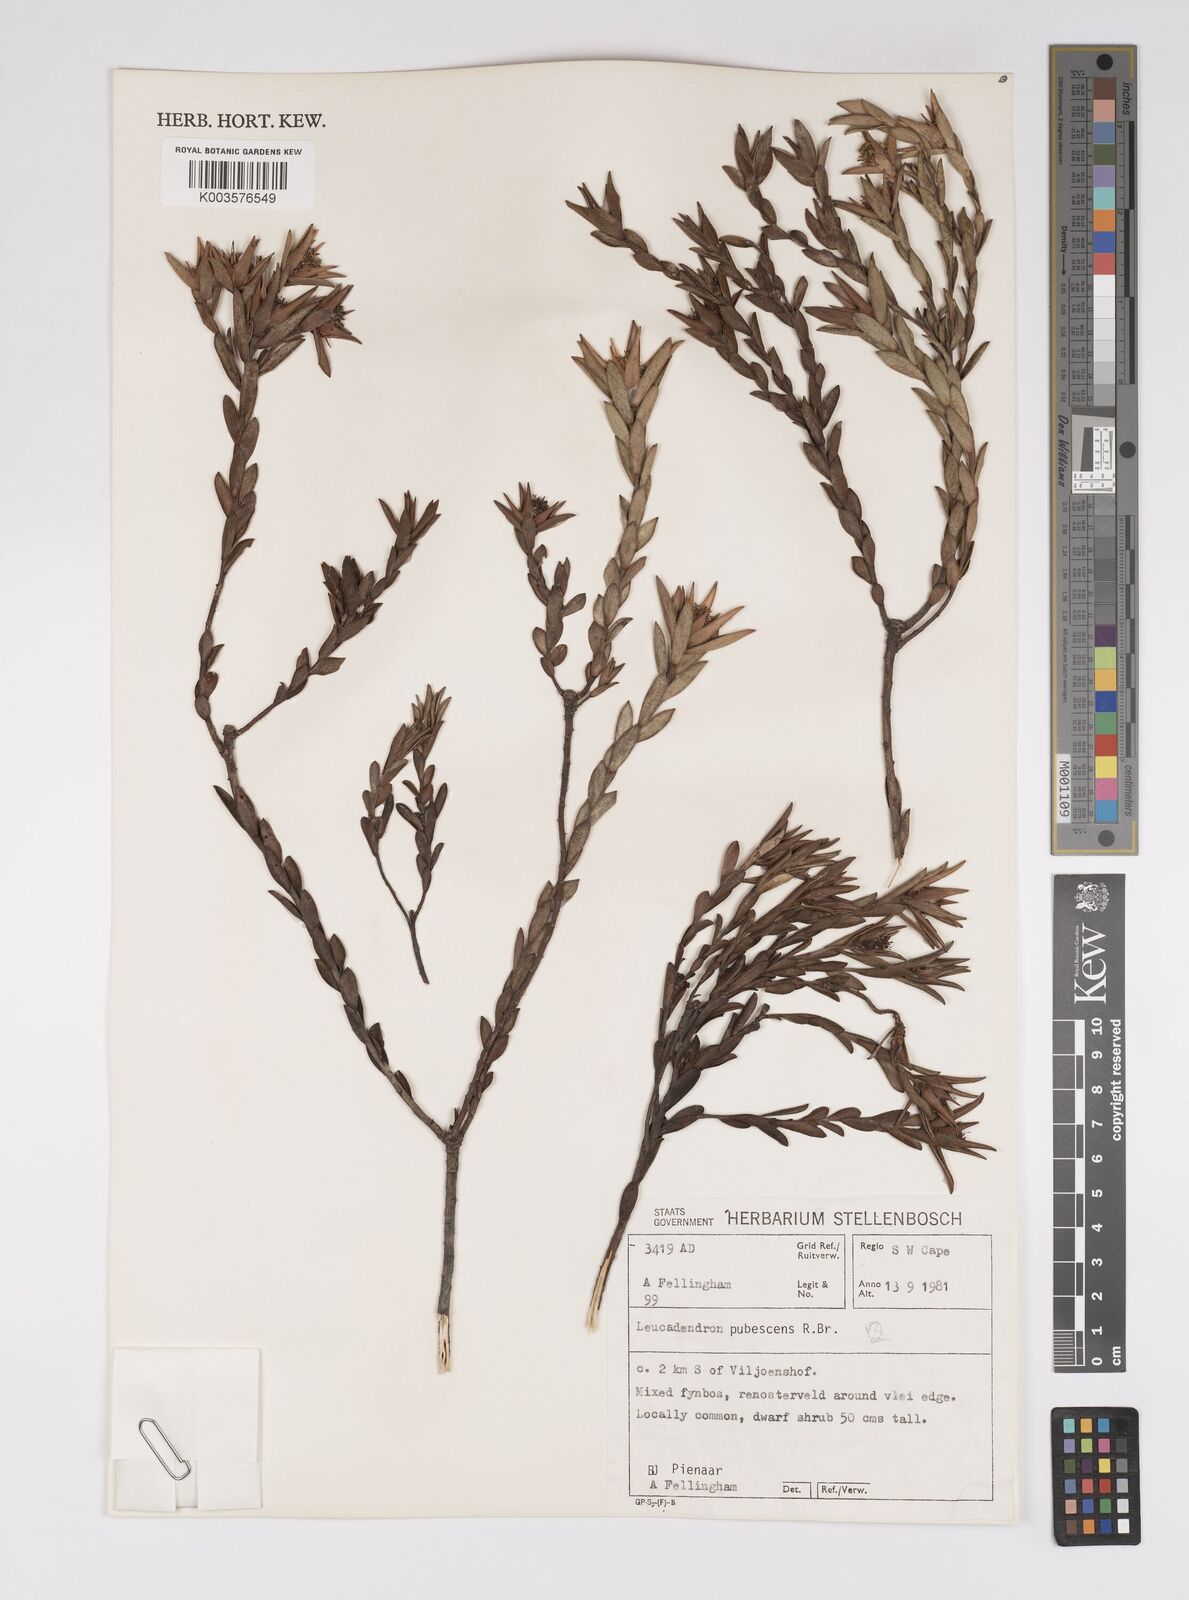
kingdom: Plantae
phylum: Tracheophyta
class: Magnoliopsida
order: Proteales
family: Proteaceae
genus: Leucadendron
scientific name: Leucadendron pubescens
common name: Grey conebush
